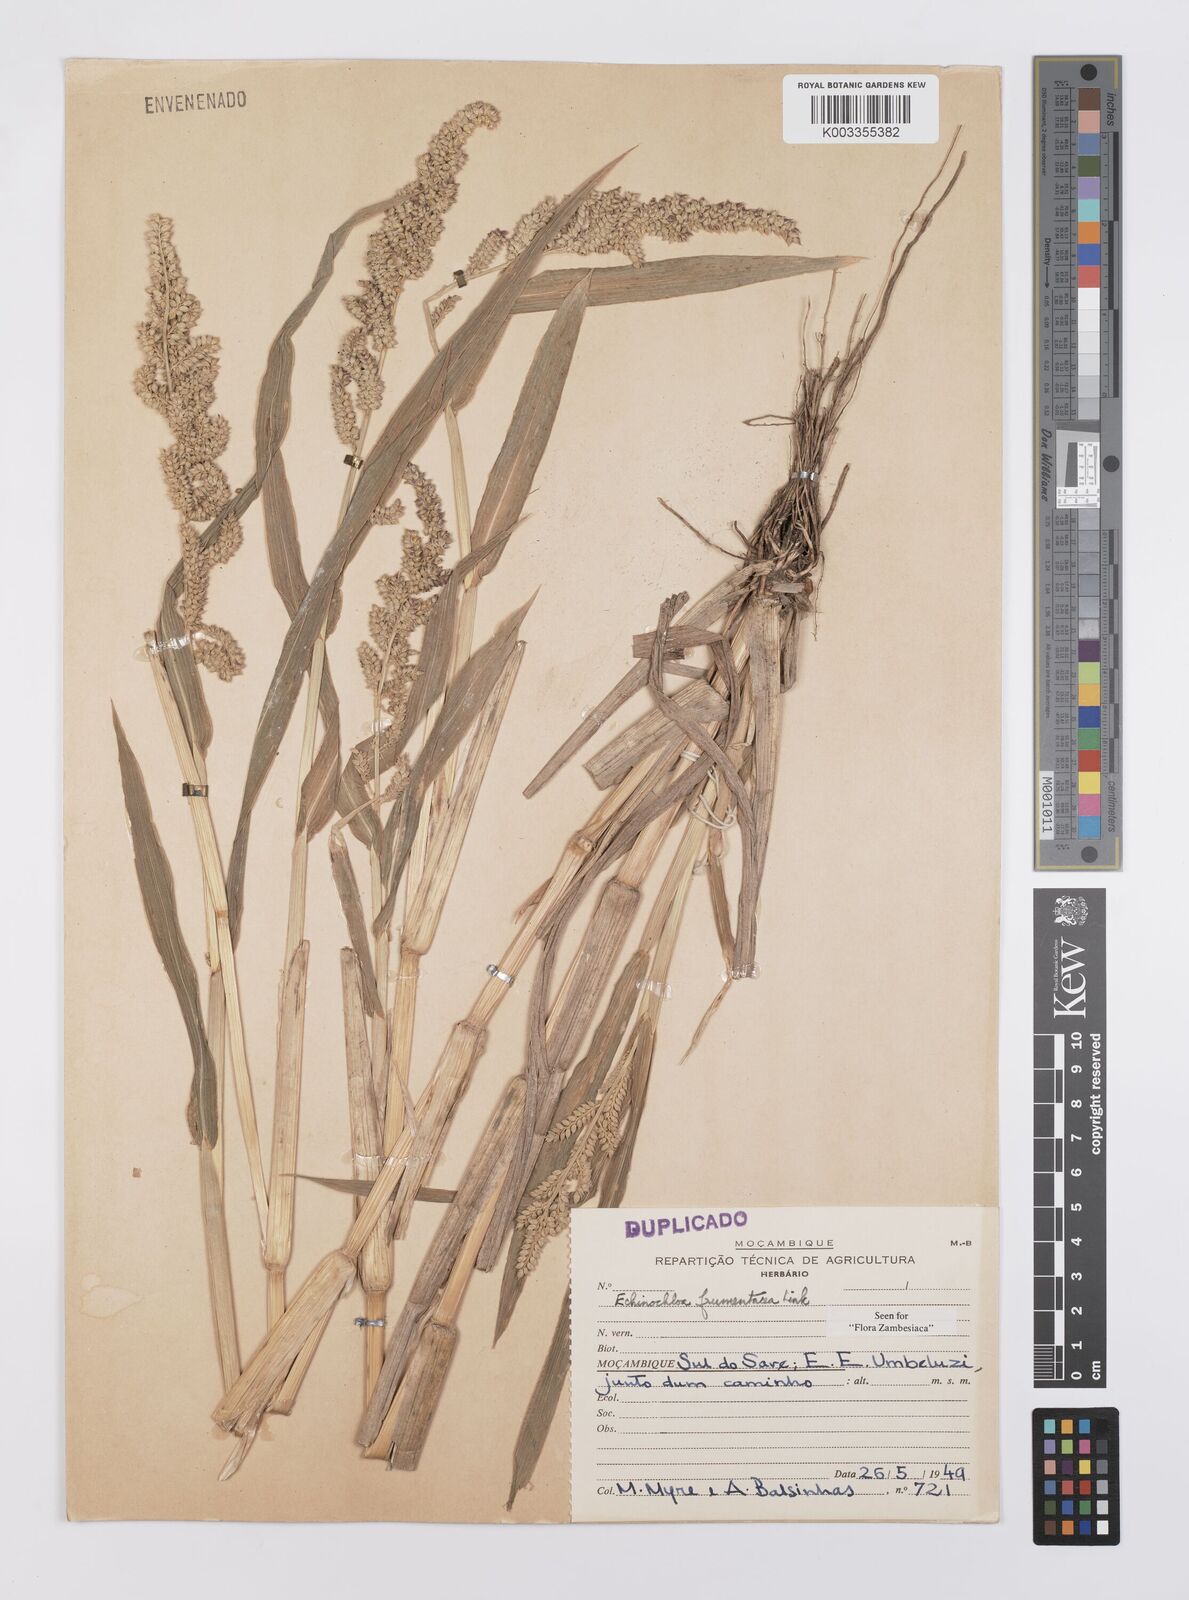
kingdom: Plantae
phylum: Tracheophyta
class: Liliopsida
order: Poales
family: Poaceae
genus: Echinochloa
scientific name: Echinochloa frumentacea
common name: Billion-dollar grass
